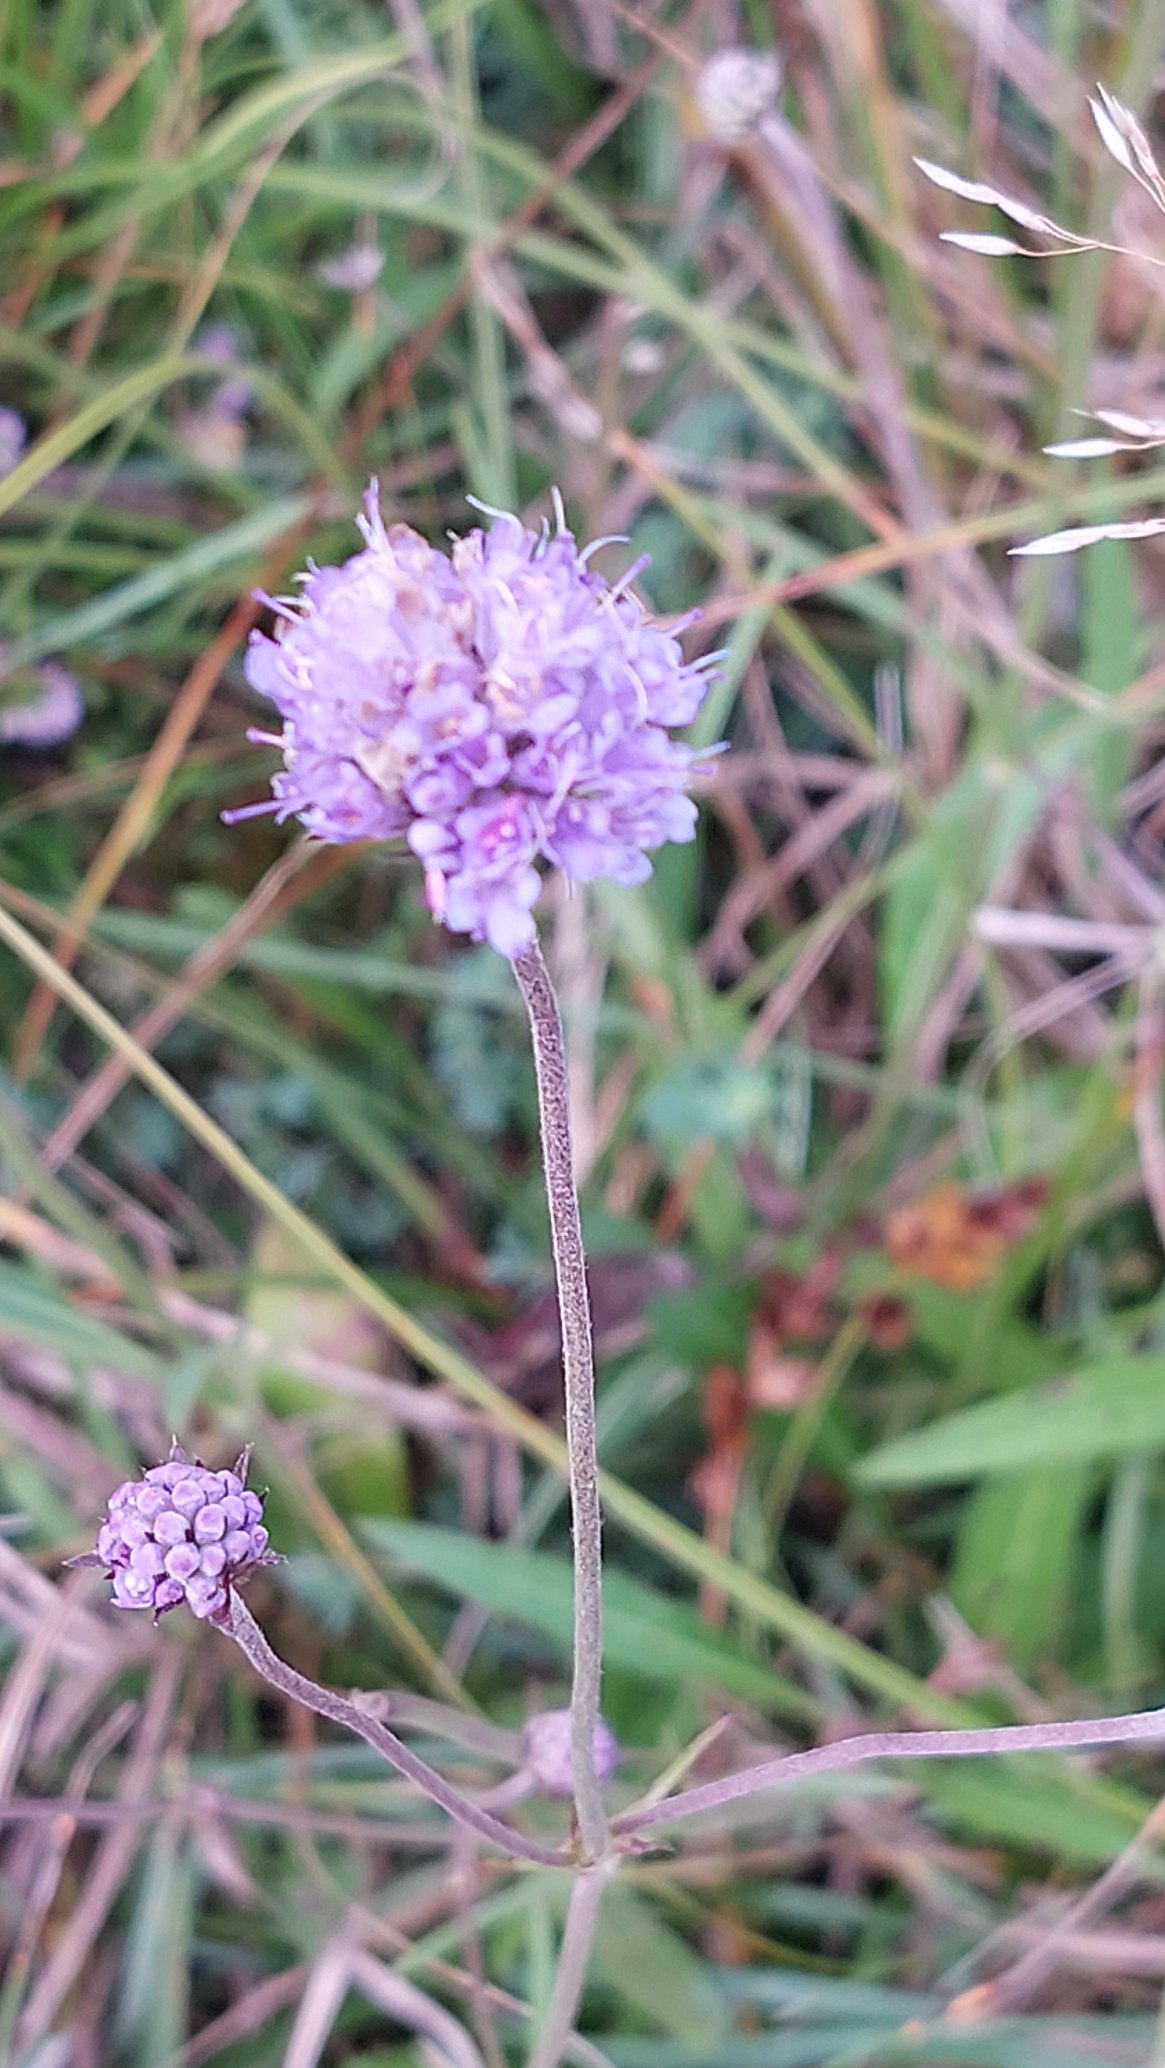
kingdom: Plantae
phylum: Tracheophyta
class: Magnoliopsida
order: Dipsacales
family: Caprifoliaceae
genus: Succisa
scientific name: Succisa pratensis
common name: Djævelsbid
